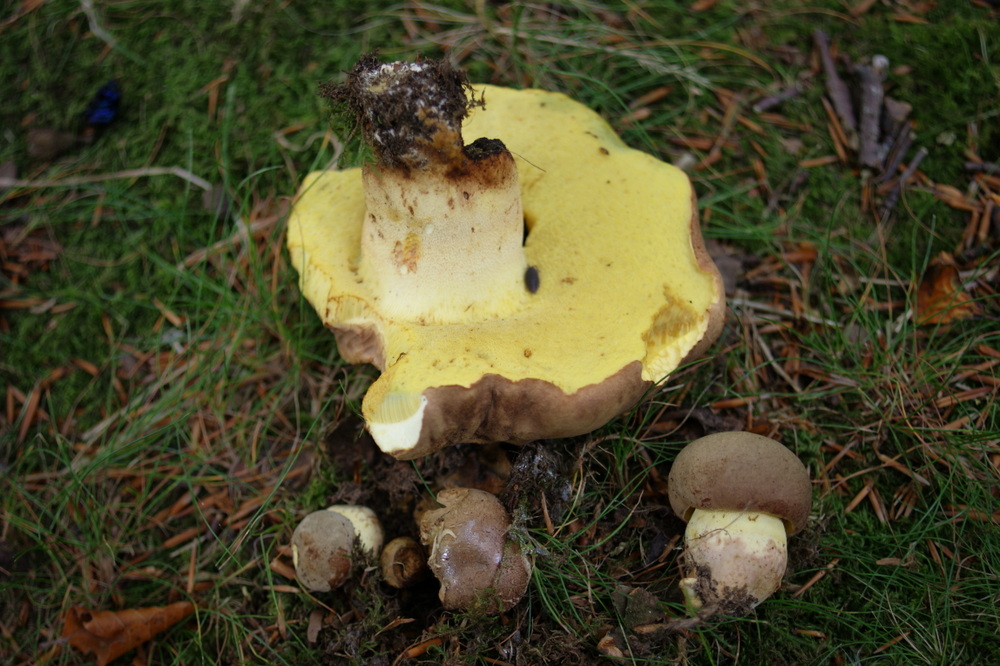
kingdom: Fungi
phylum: Basidiomycota
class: Agaricomycetes
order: Boletales
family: Boletaceae
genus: Caloboletus
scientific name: Caloboletus radicans
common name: rod-rørhat
